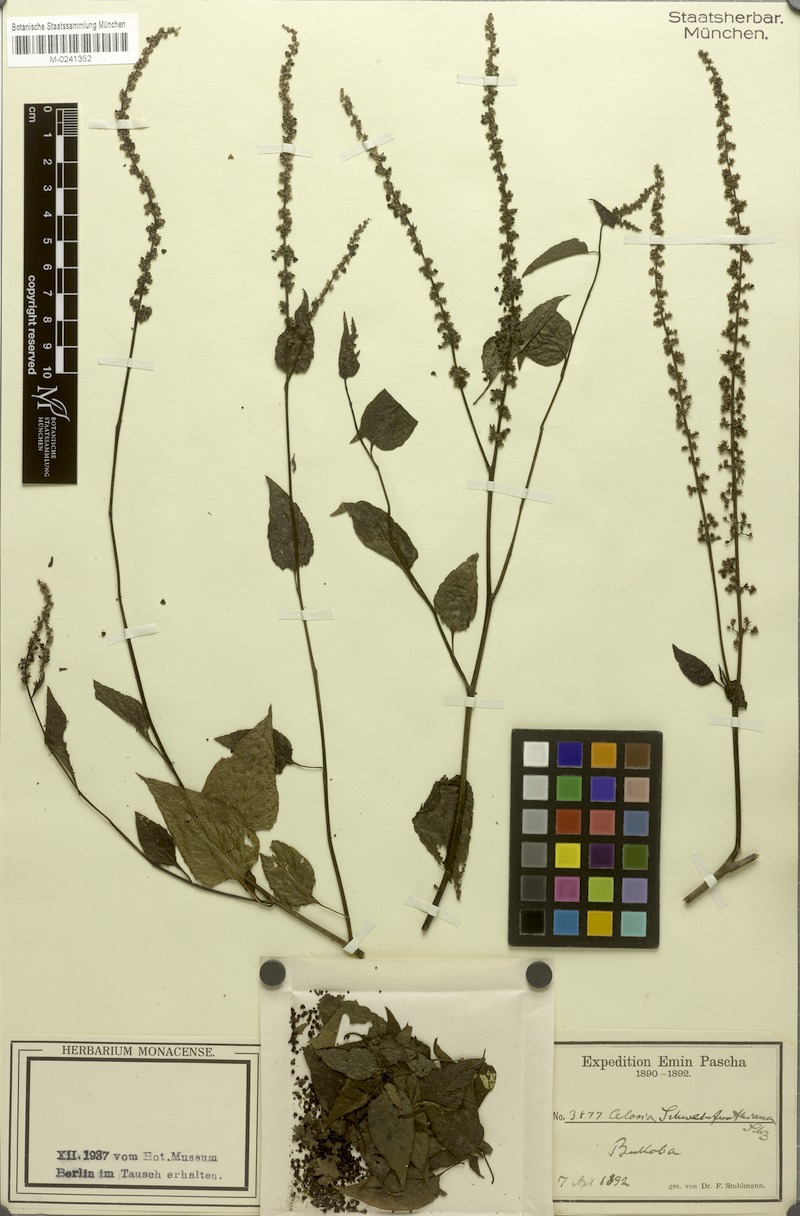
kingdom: Plantae
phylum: Tracheophyta
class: Magnoliopsida
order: Caryophyllales
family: Amaranthaceae
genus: Celosia
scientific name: Celosia schweinfurthiana
